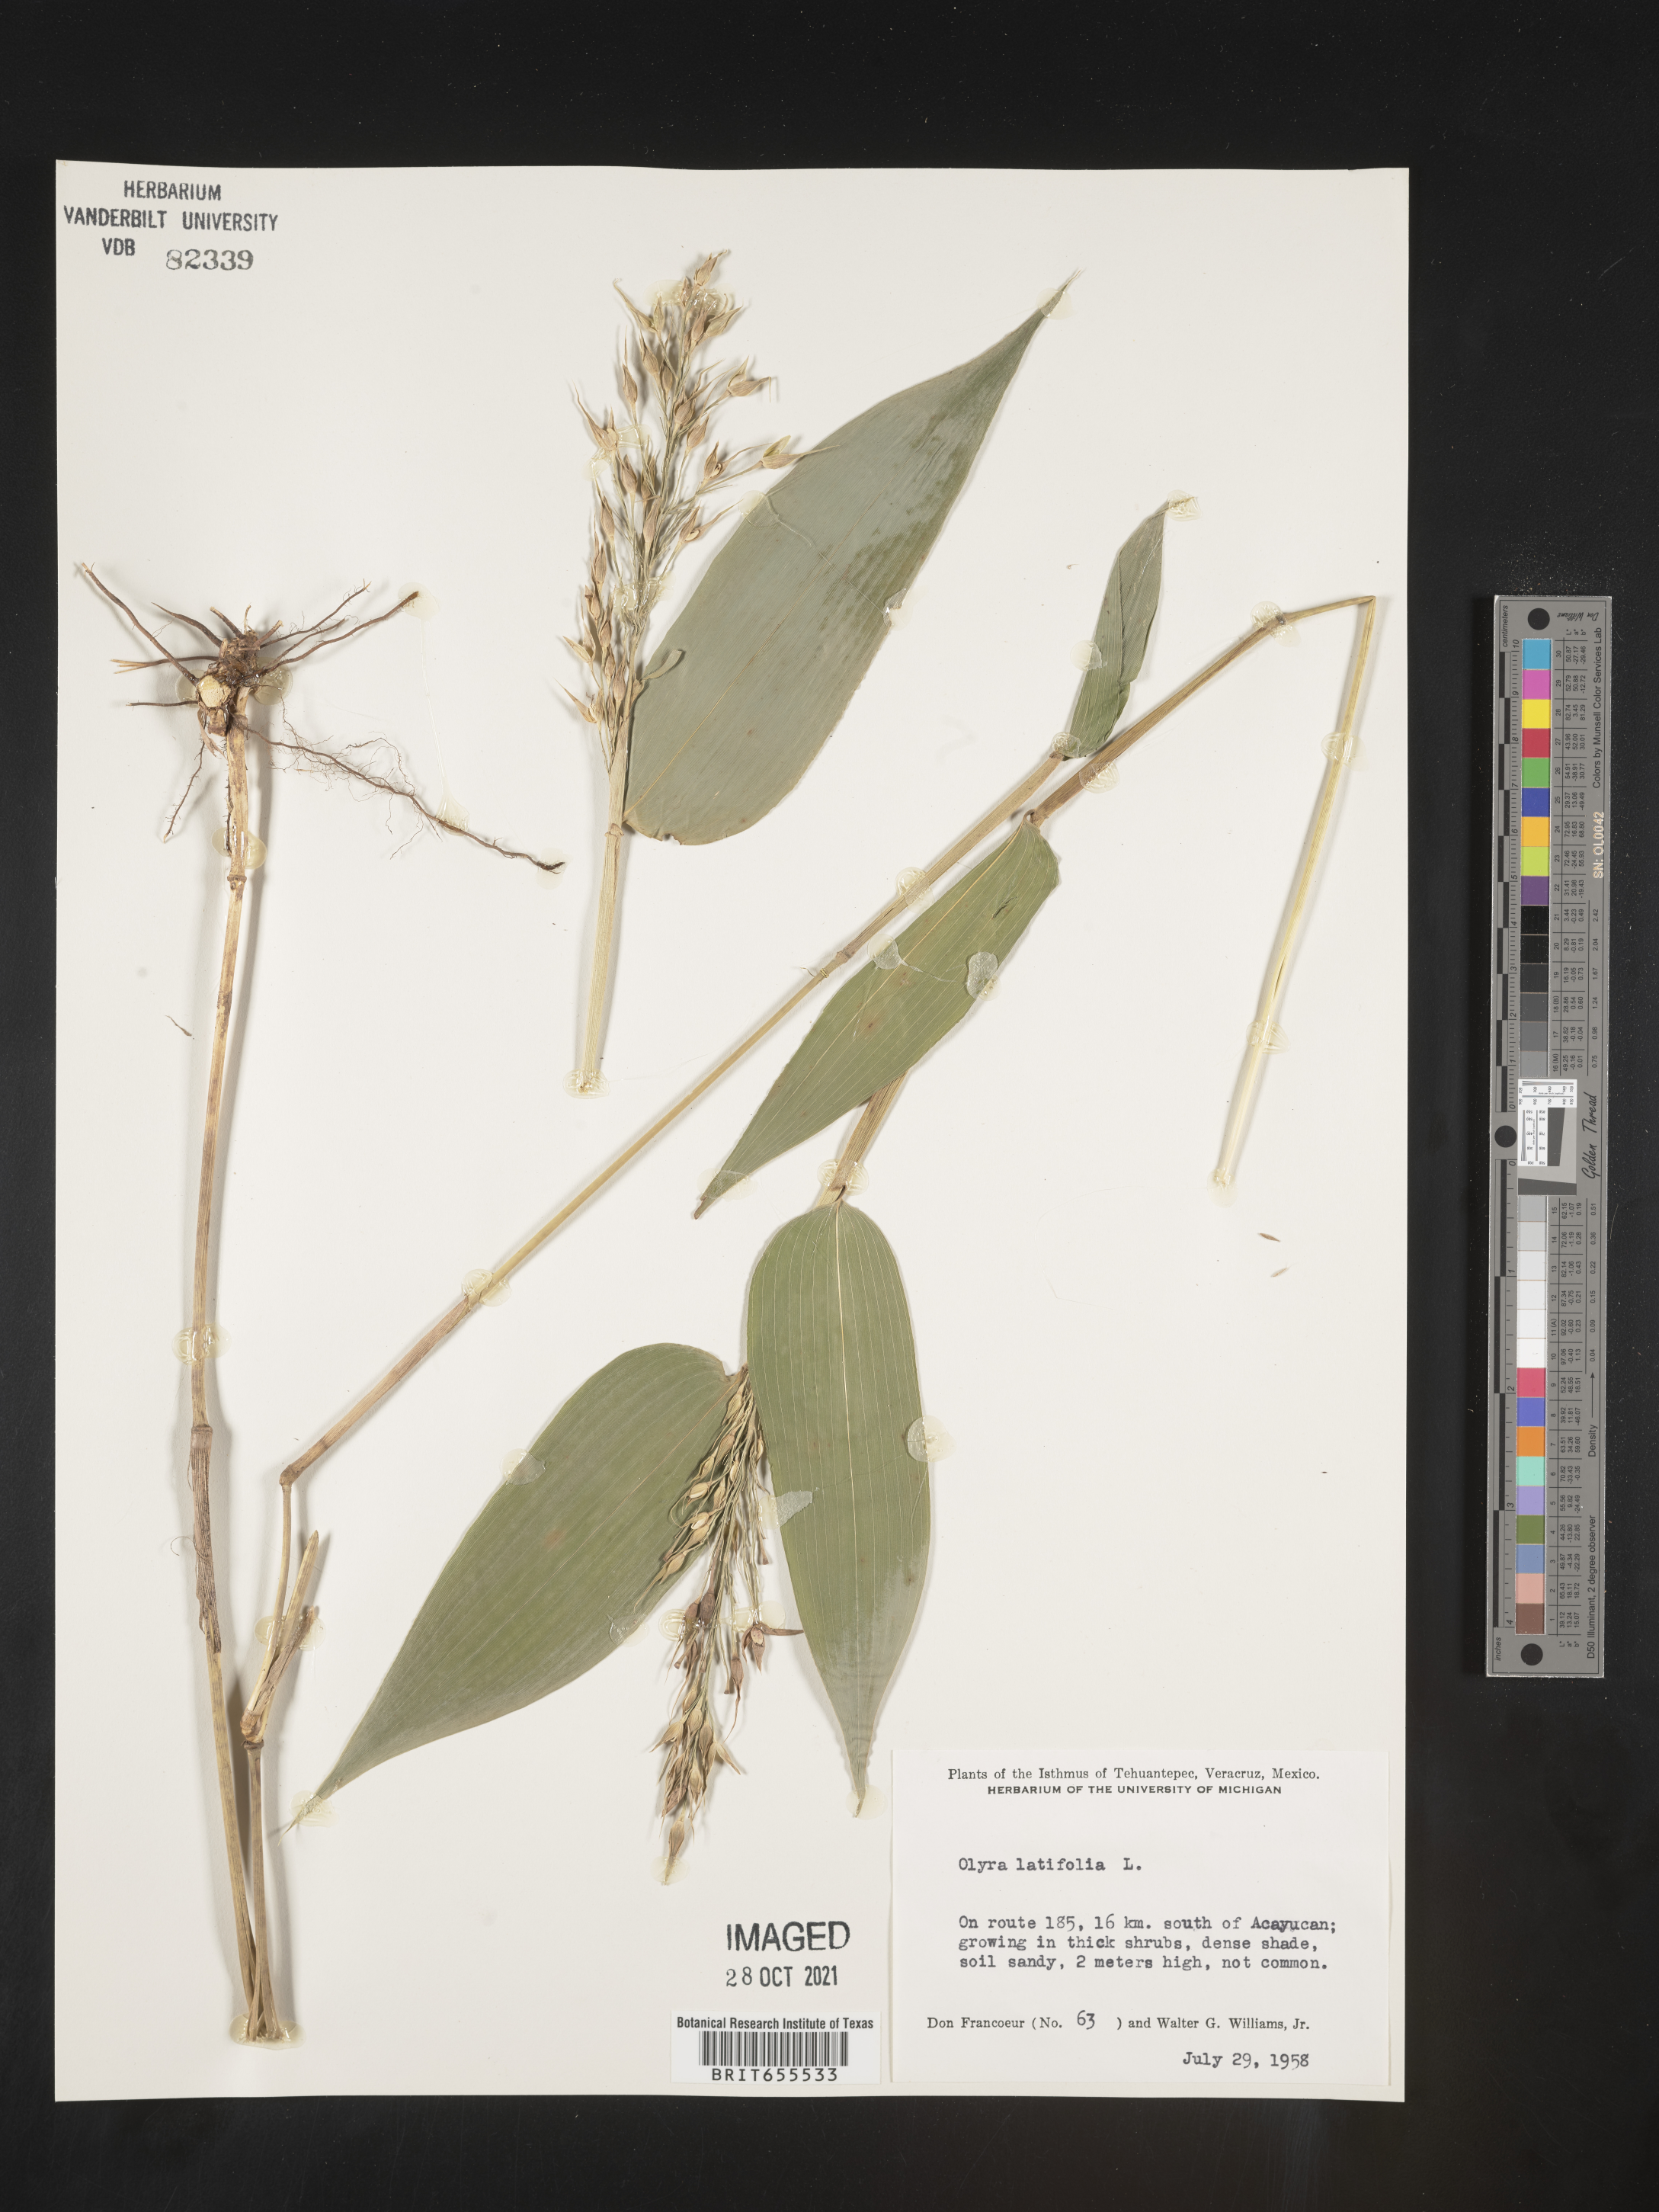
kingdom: Plantae
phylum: Tracheophyta
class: Liliopsida
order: Poales
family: Poaceae
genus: Olyra
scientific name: Olyra
